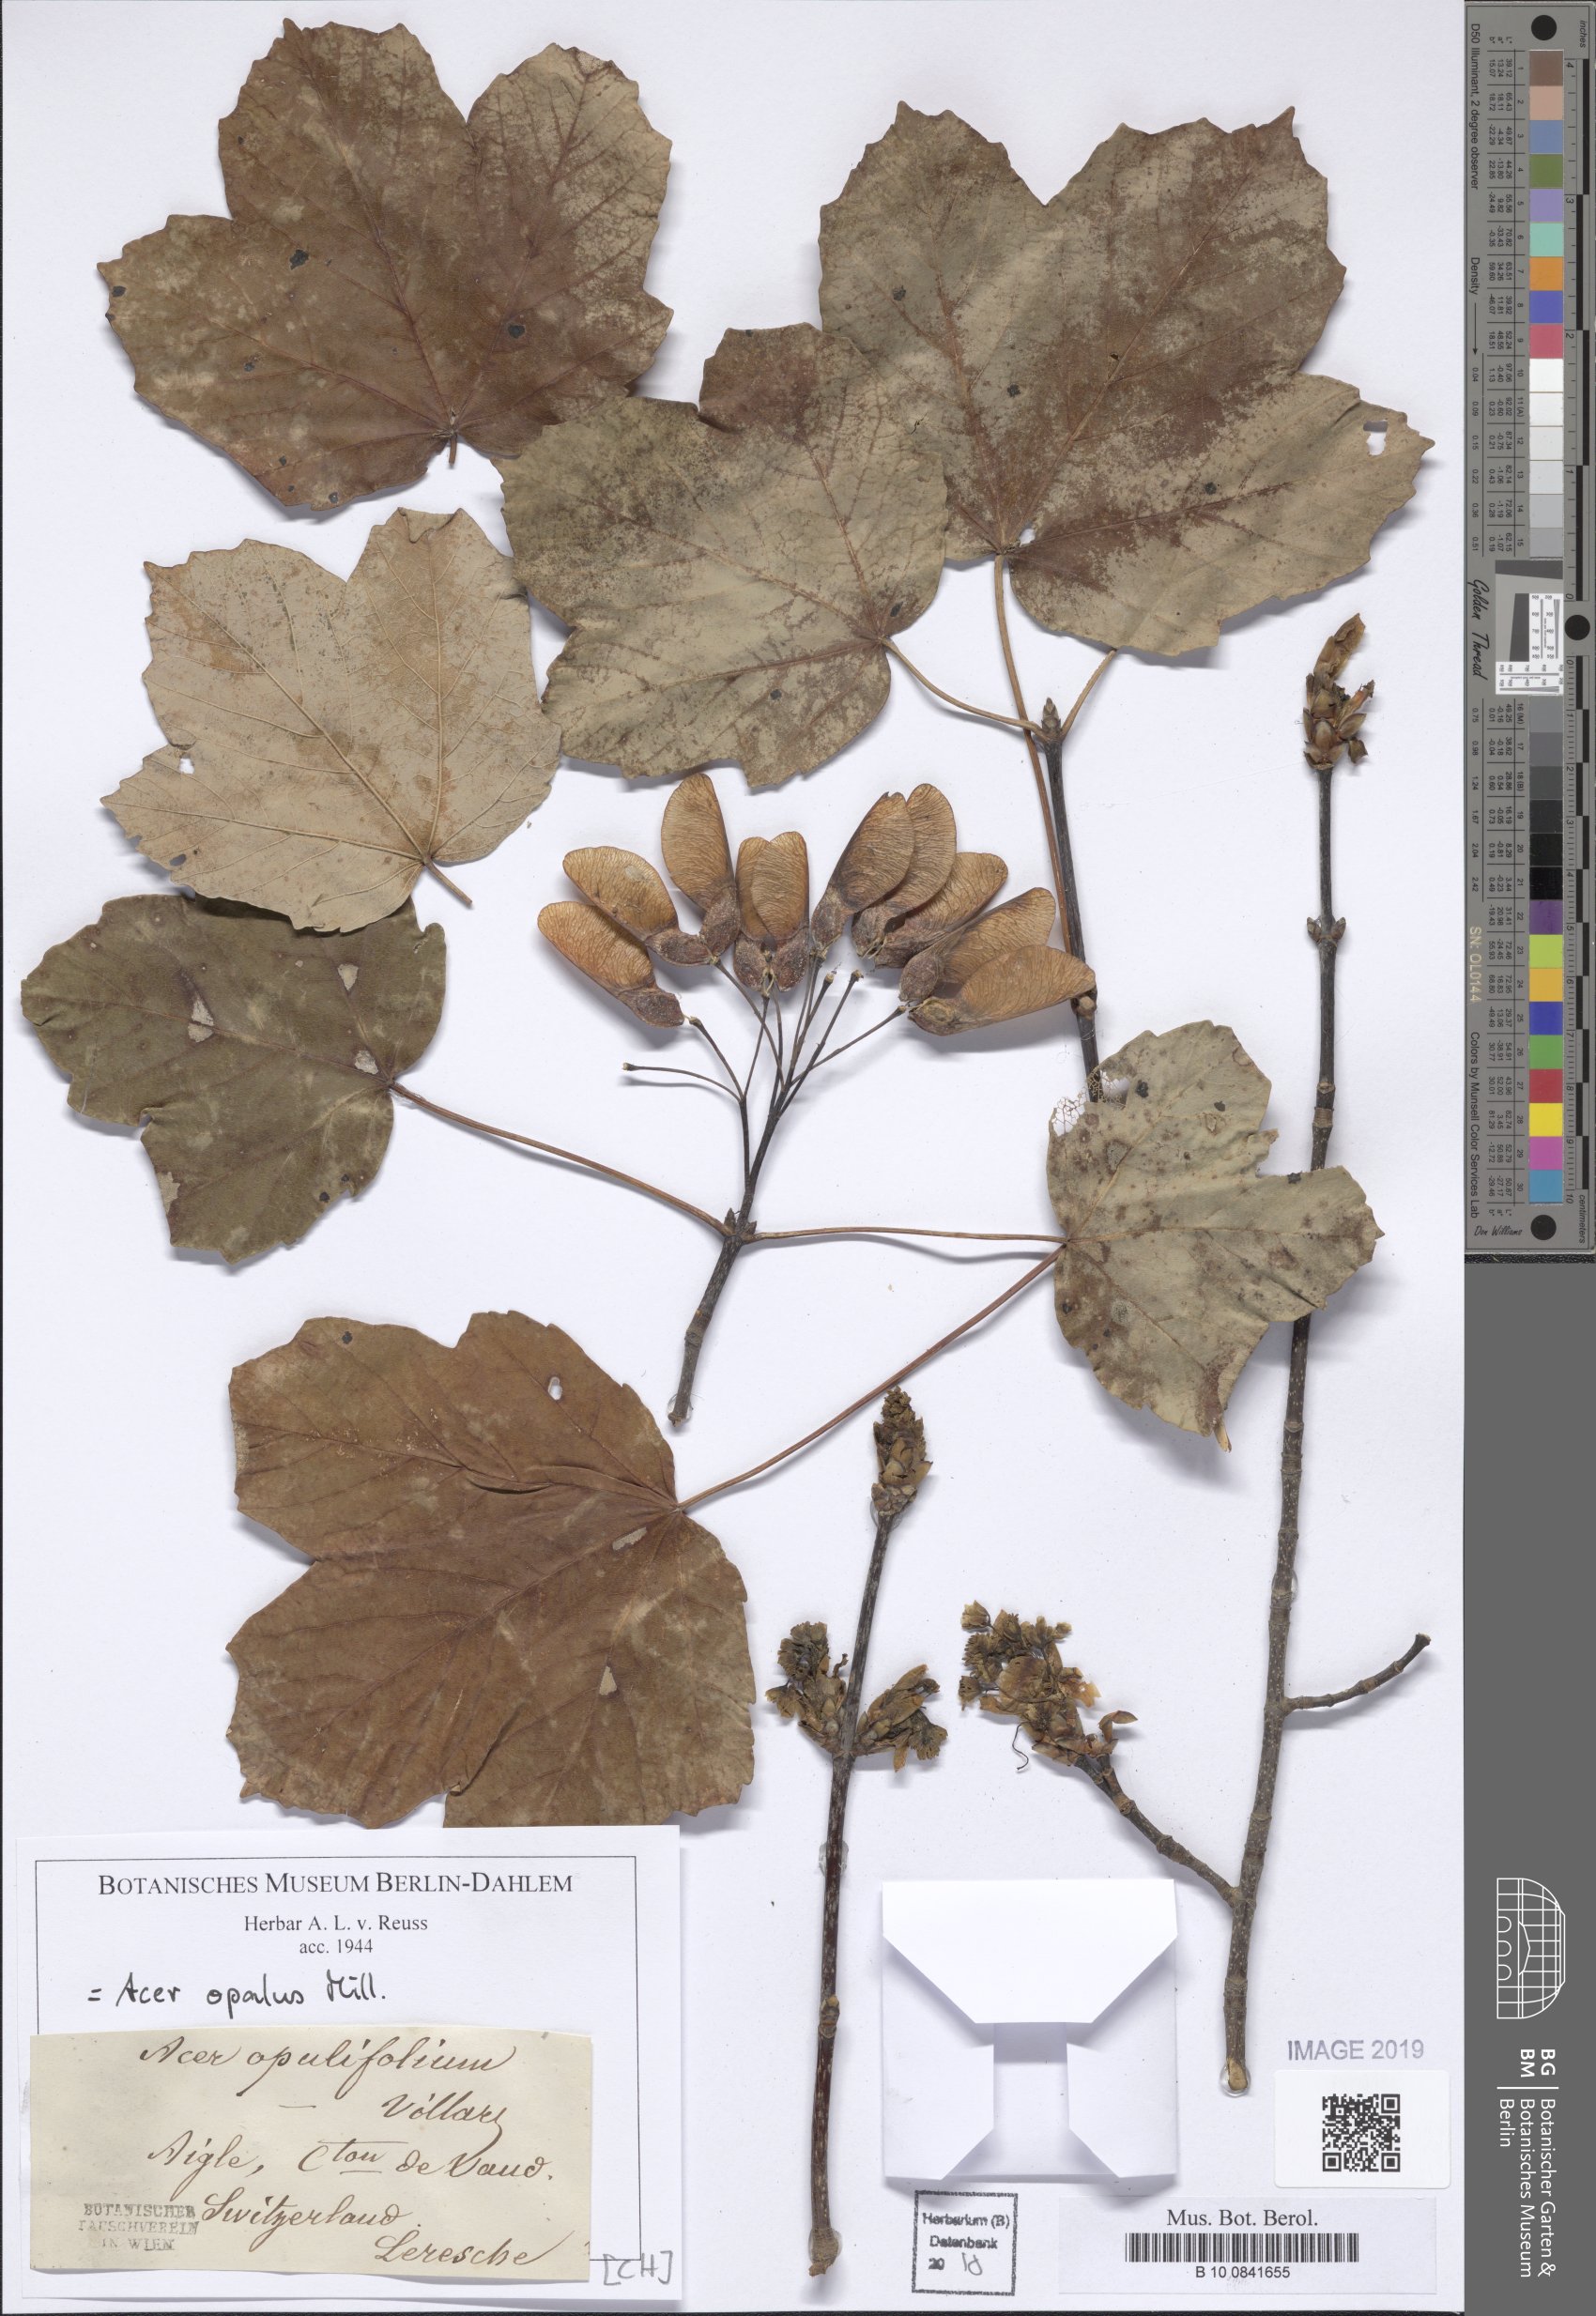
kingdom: Plantae
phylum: Tracheophyta
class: Magnoliopsida
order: Sapindales
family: Sapindaceae
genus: Acer
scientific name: Acer opalus
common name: Italian maple
